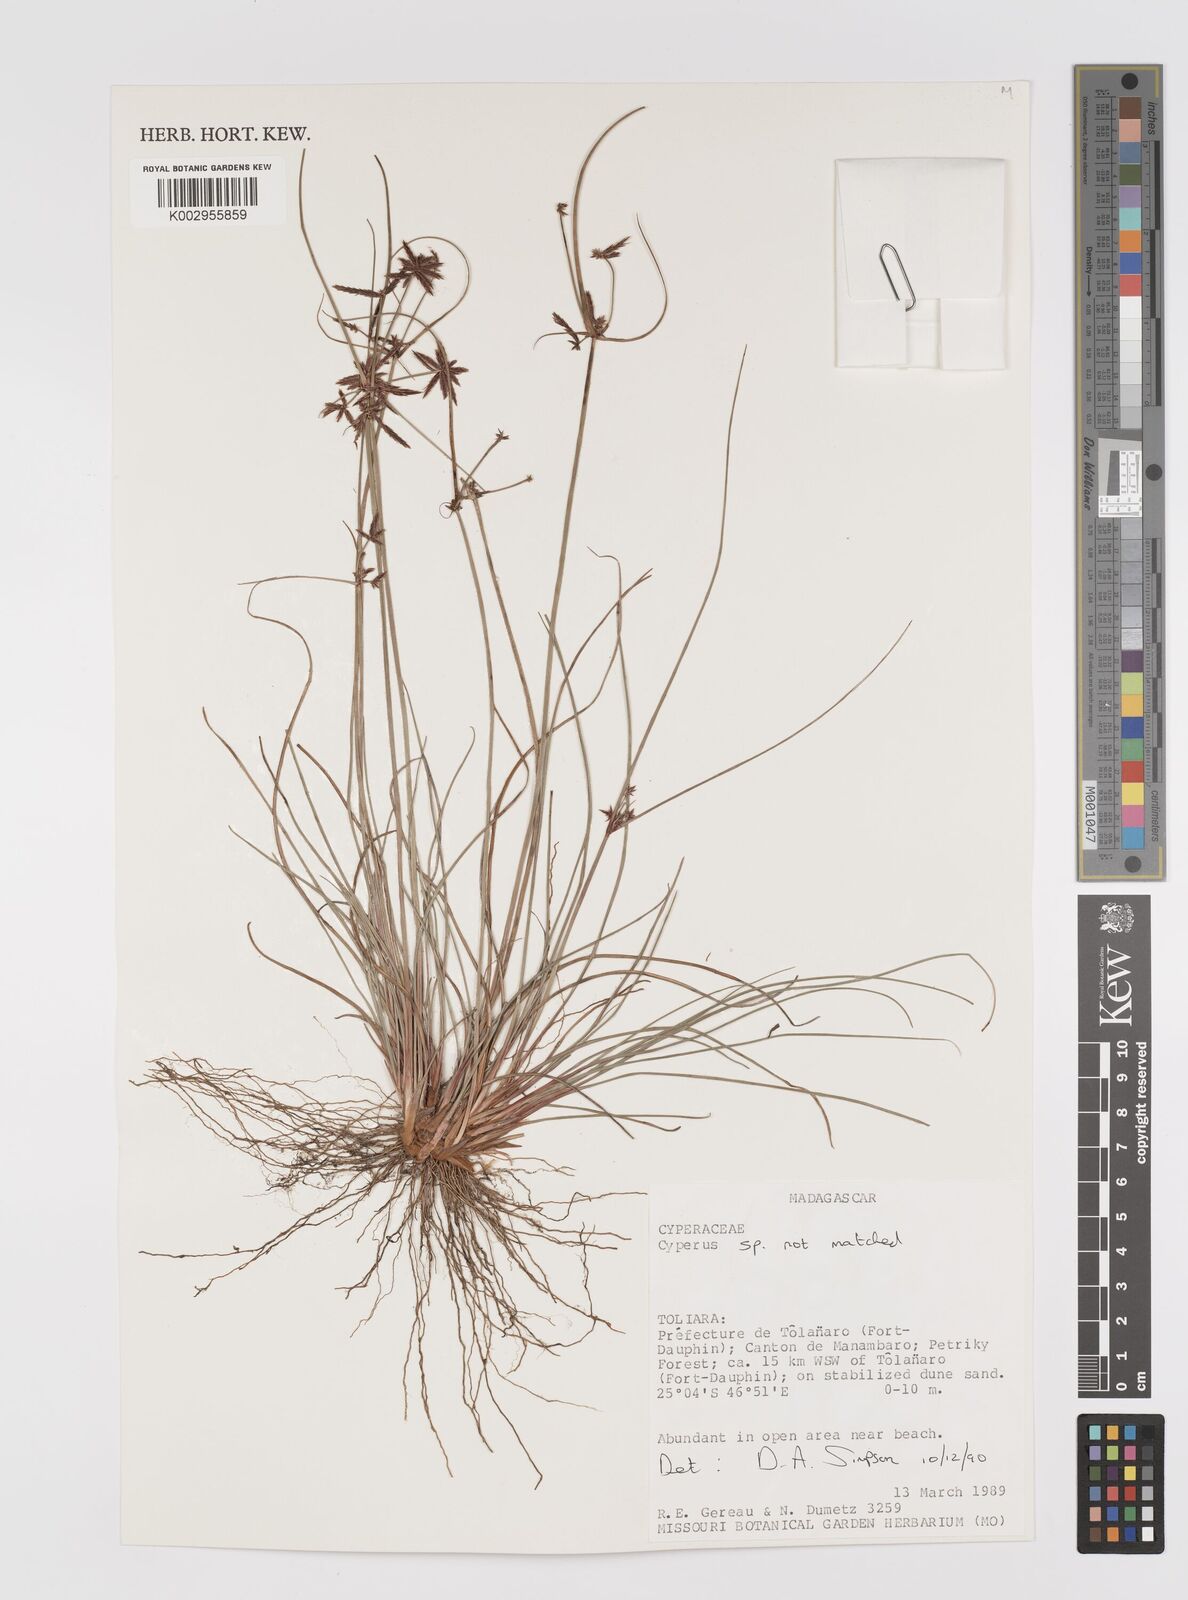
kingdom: Plantae
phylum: Tracheophyta
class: Liliopsida
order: Poales
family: Cyperaceae
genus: Cyperus
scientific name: Cyperus
